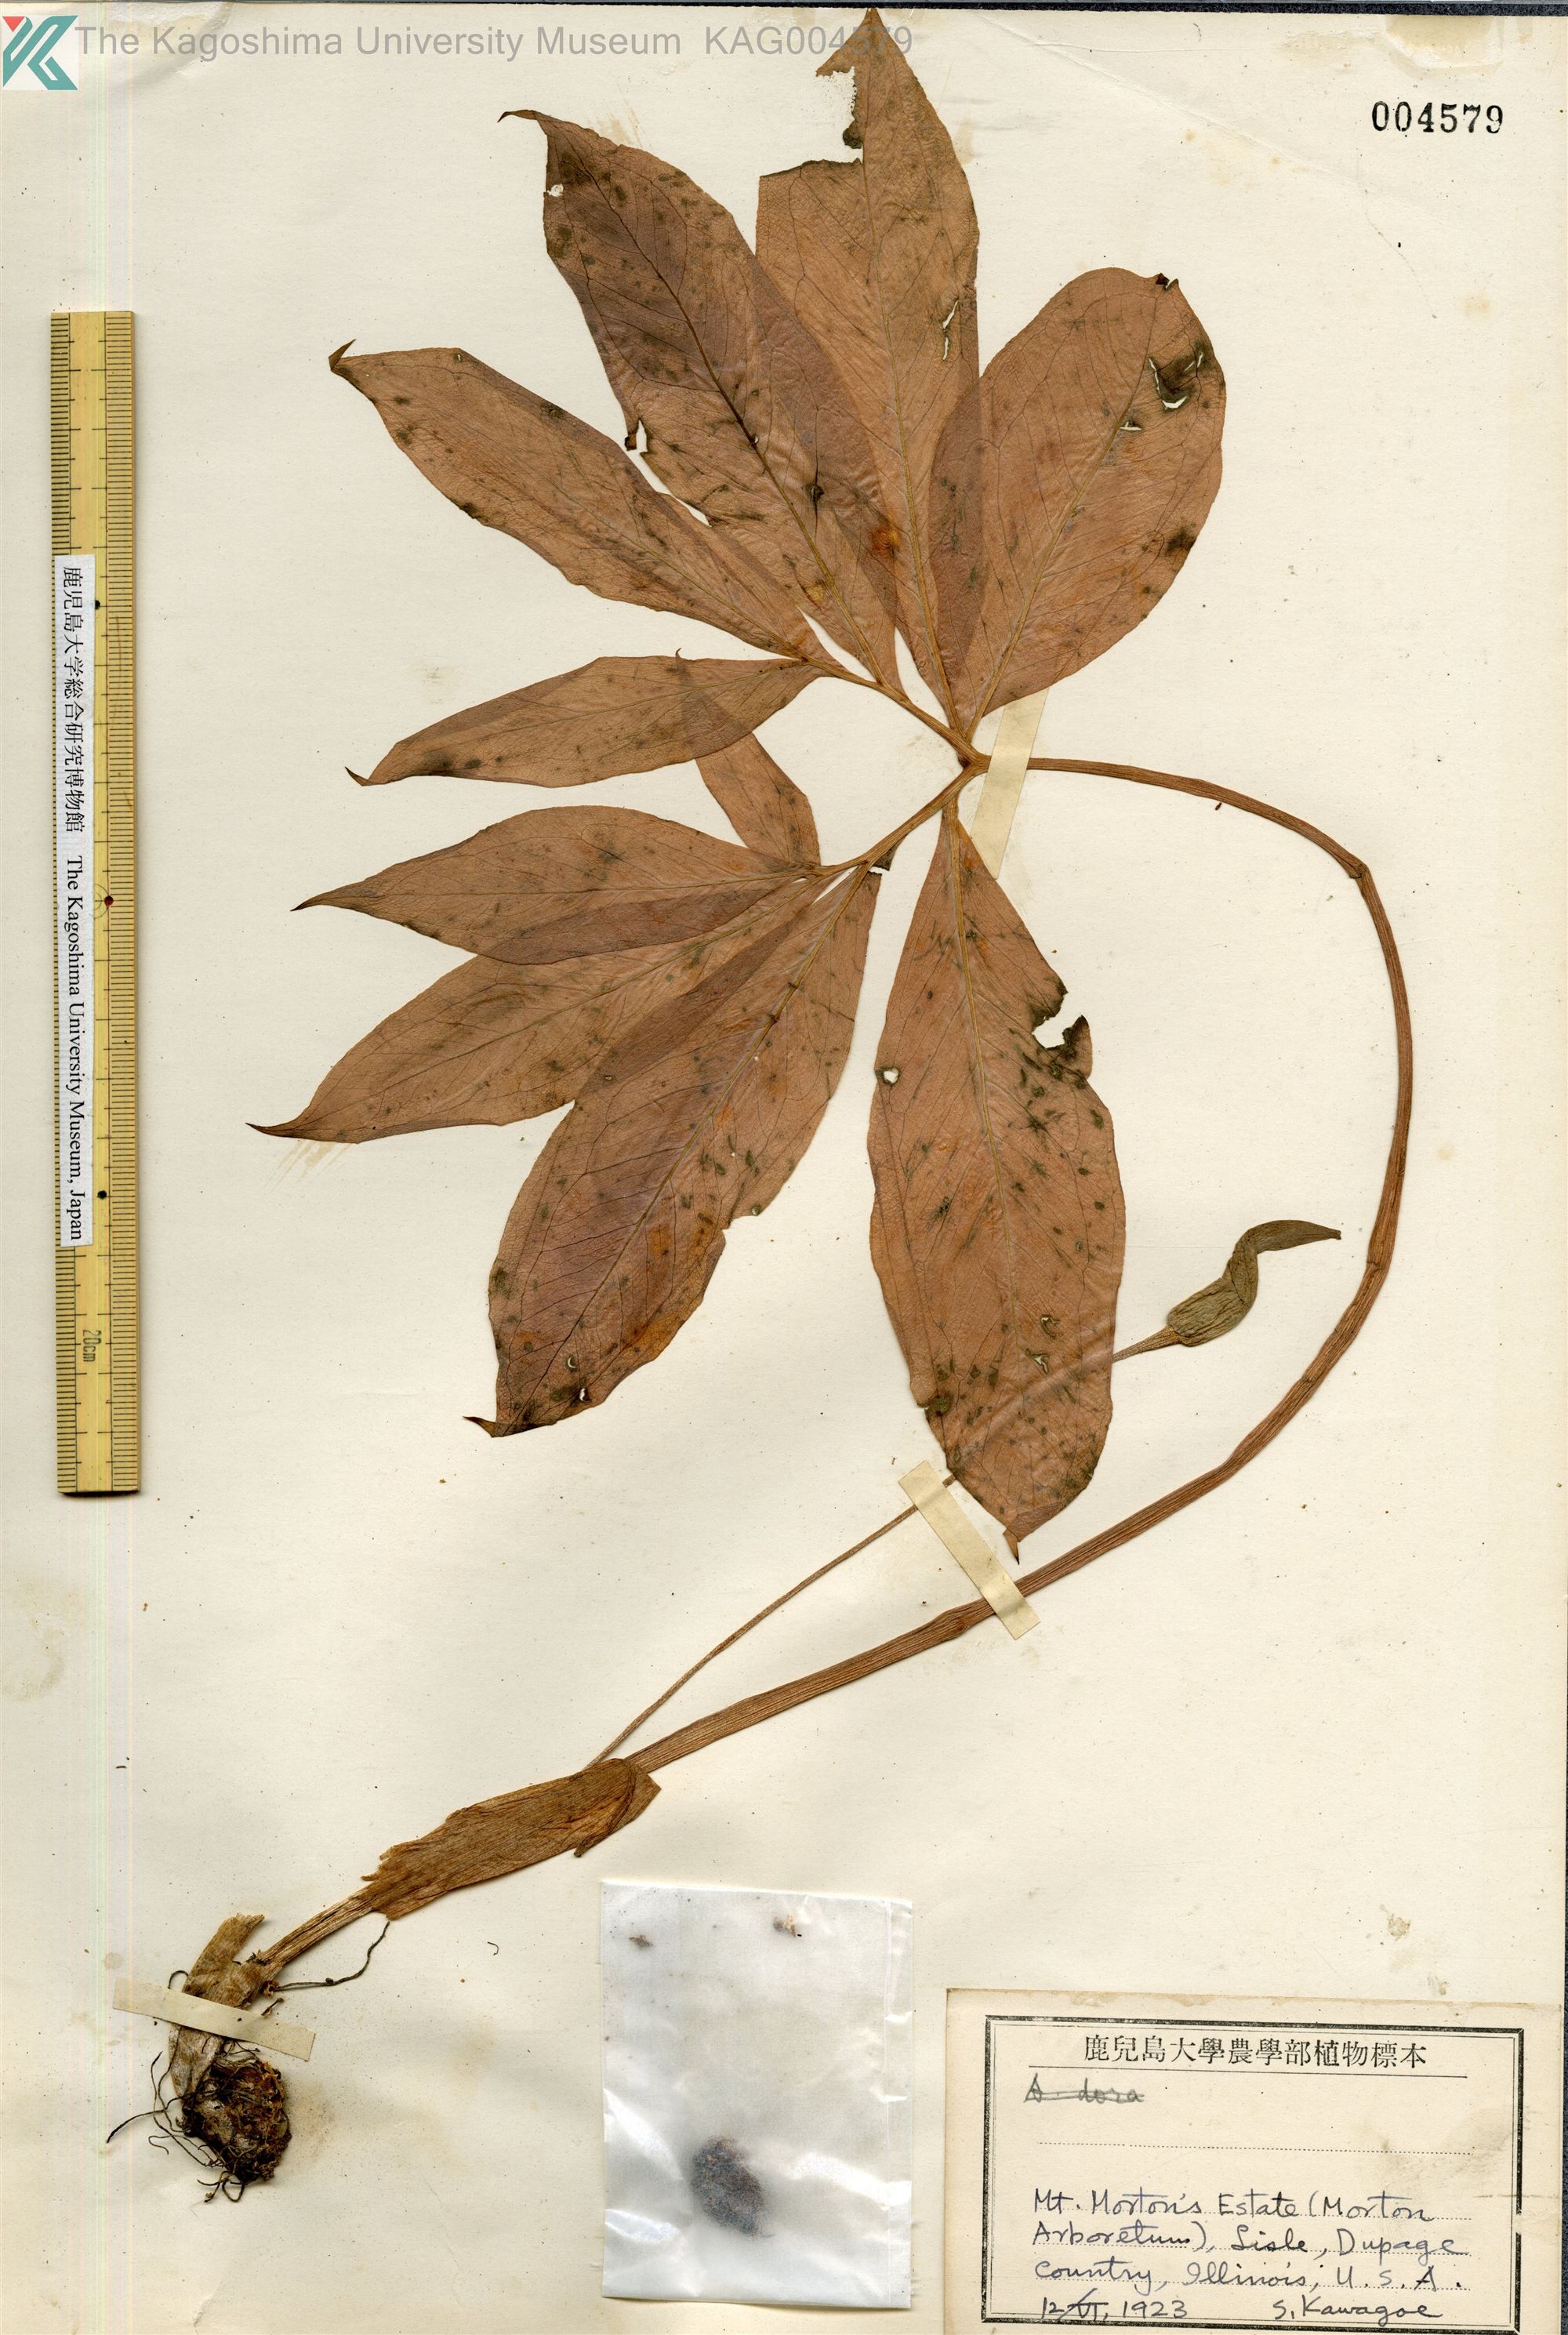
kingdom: Plantae
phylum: Tracheophyta
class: Liliopsida
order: Alismatales
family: Araceae
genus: Arisaema
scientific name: Arisaema
